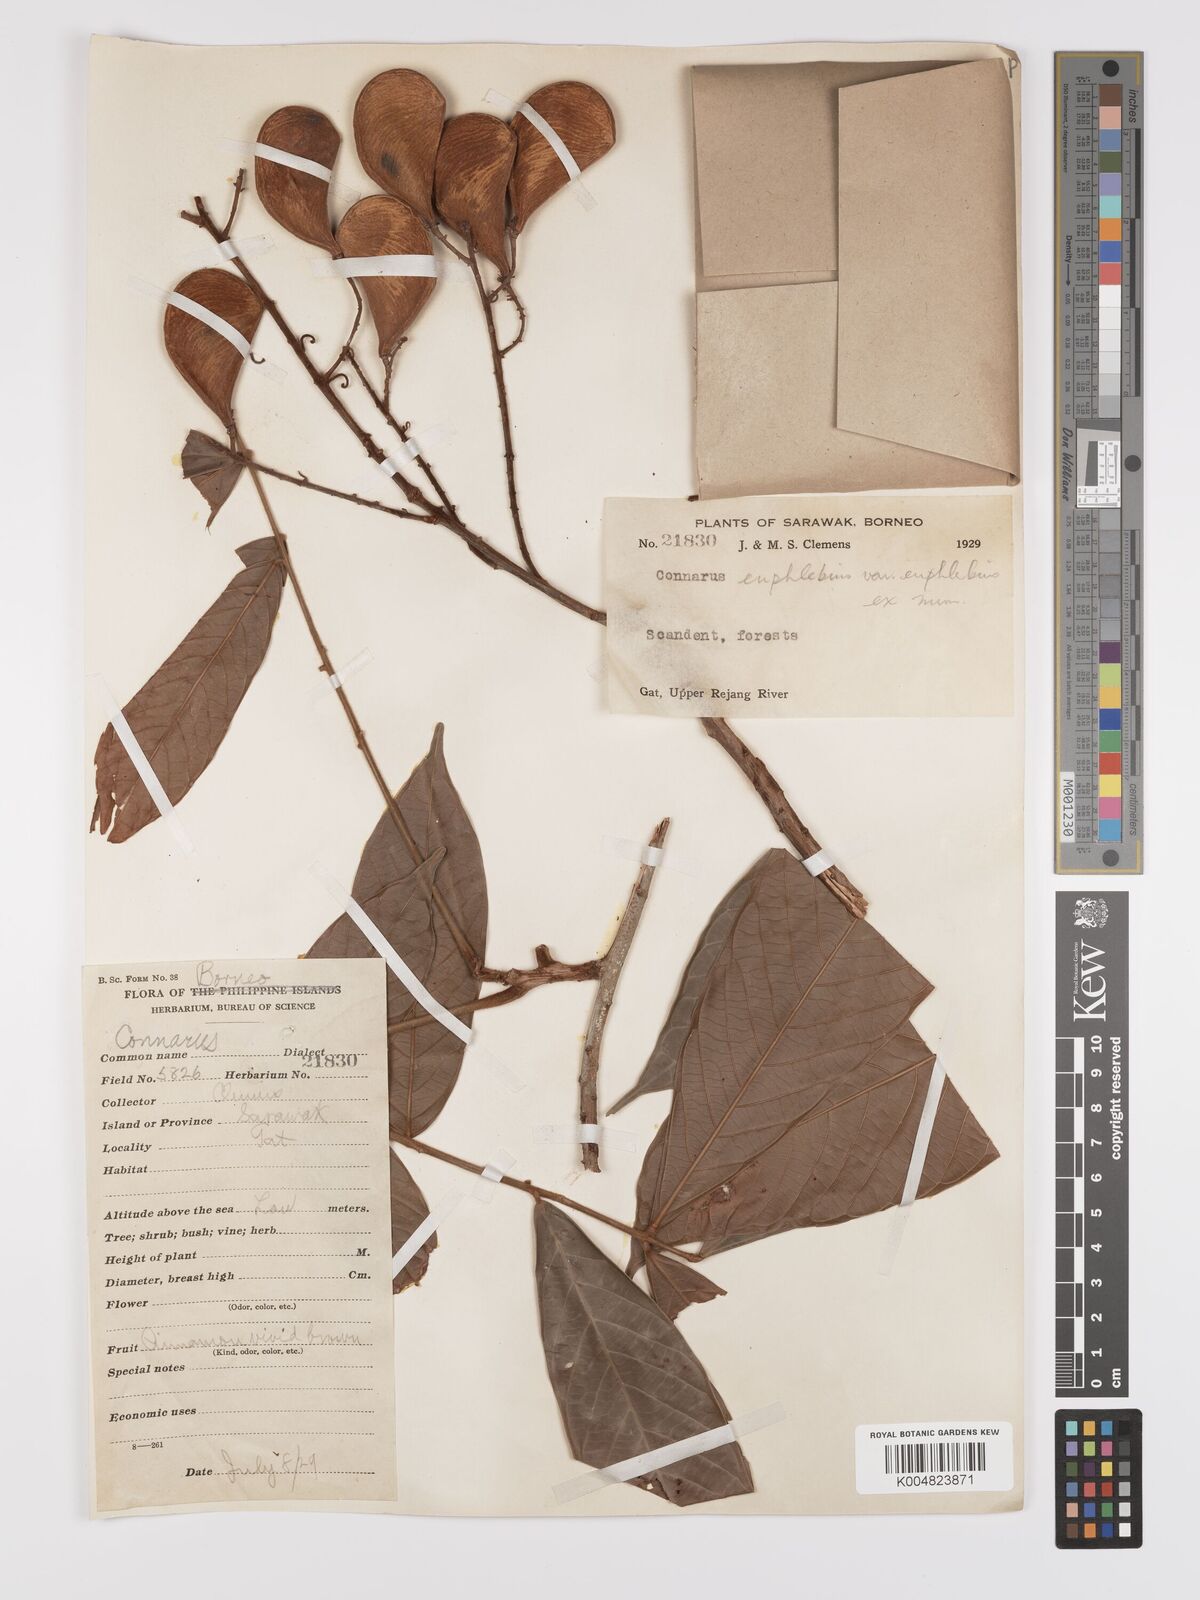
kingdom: Plantae
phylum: Tracheophyta
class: Magnoliopsida
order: Oxalidales
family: Connaraceae
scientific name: Connaraceae
